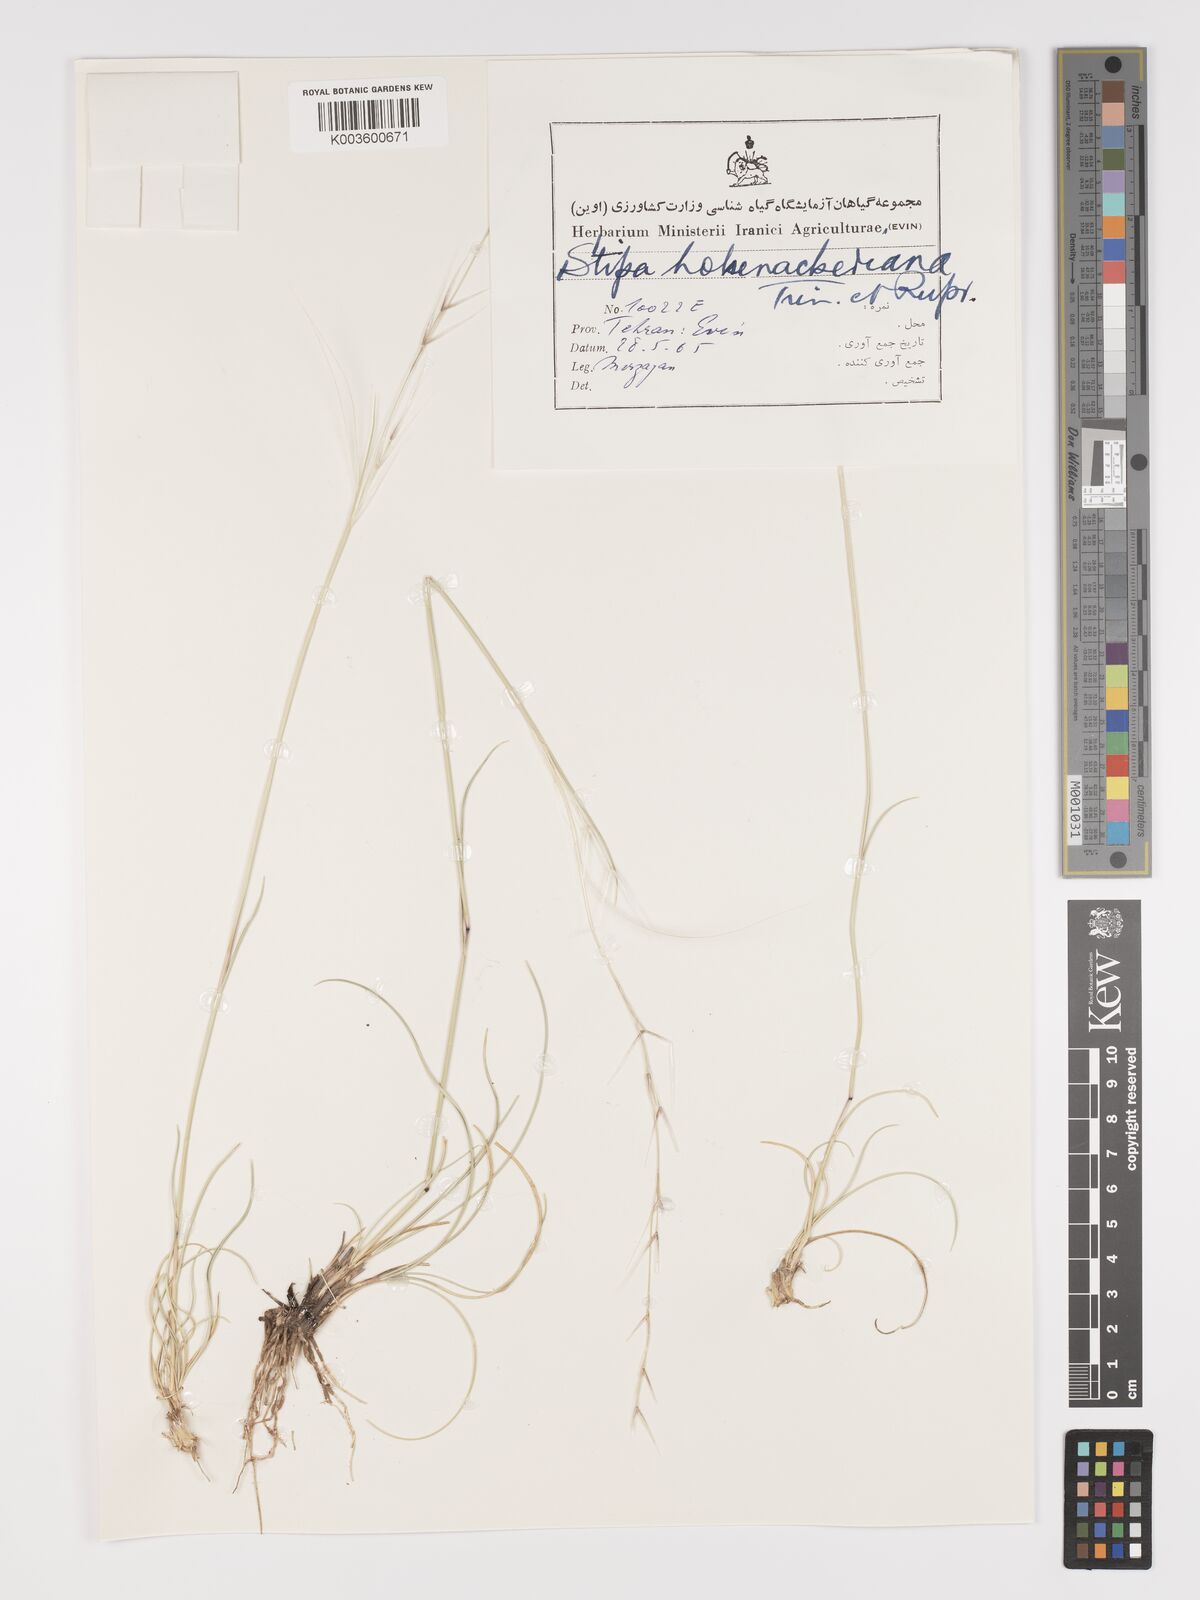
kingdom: Plantae
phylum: Tracheophyta
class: Liliopsida
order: Poales
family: Poaceae
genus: Stipa
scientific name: Stipa hohenackeriana
